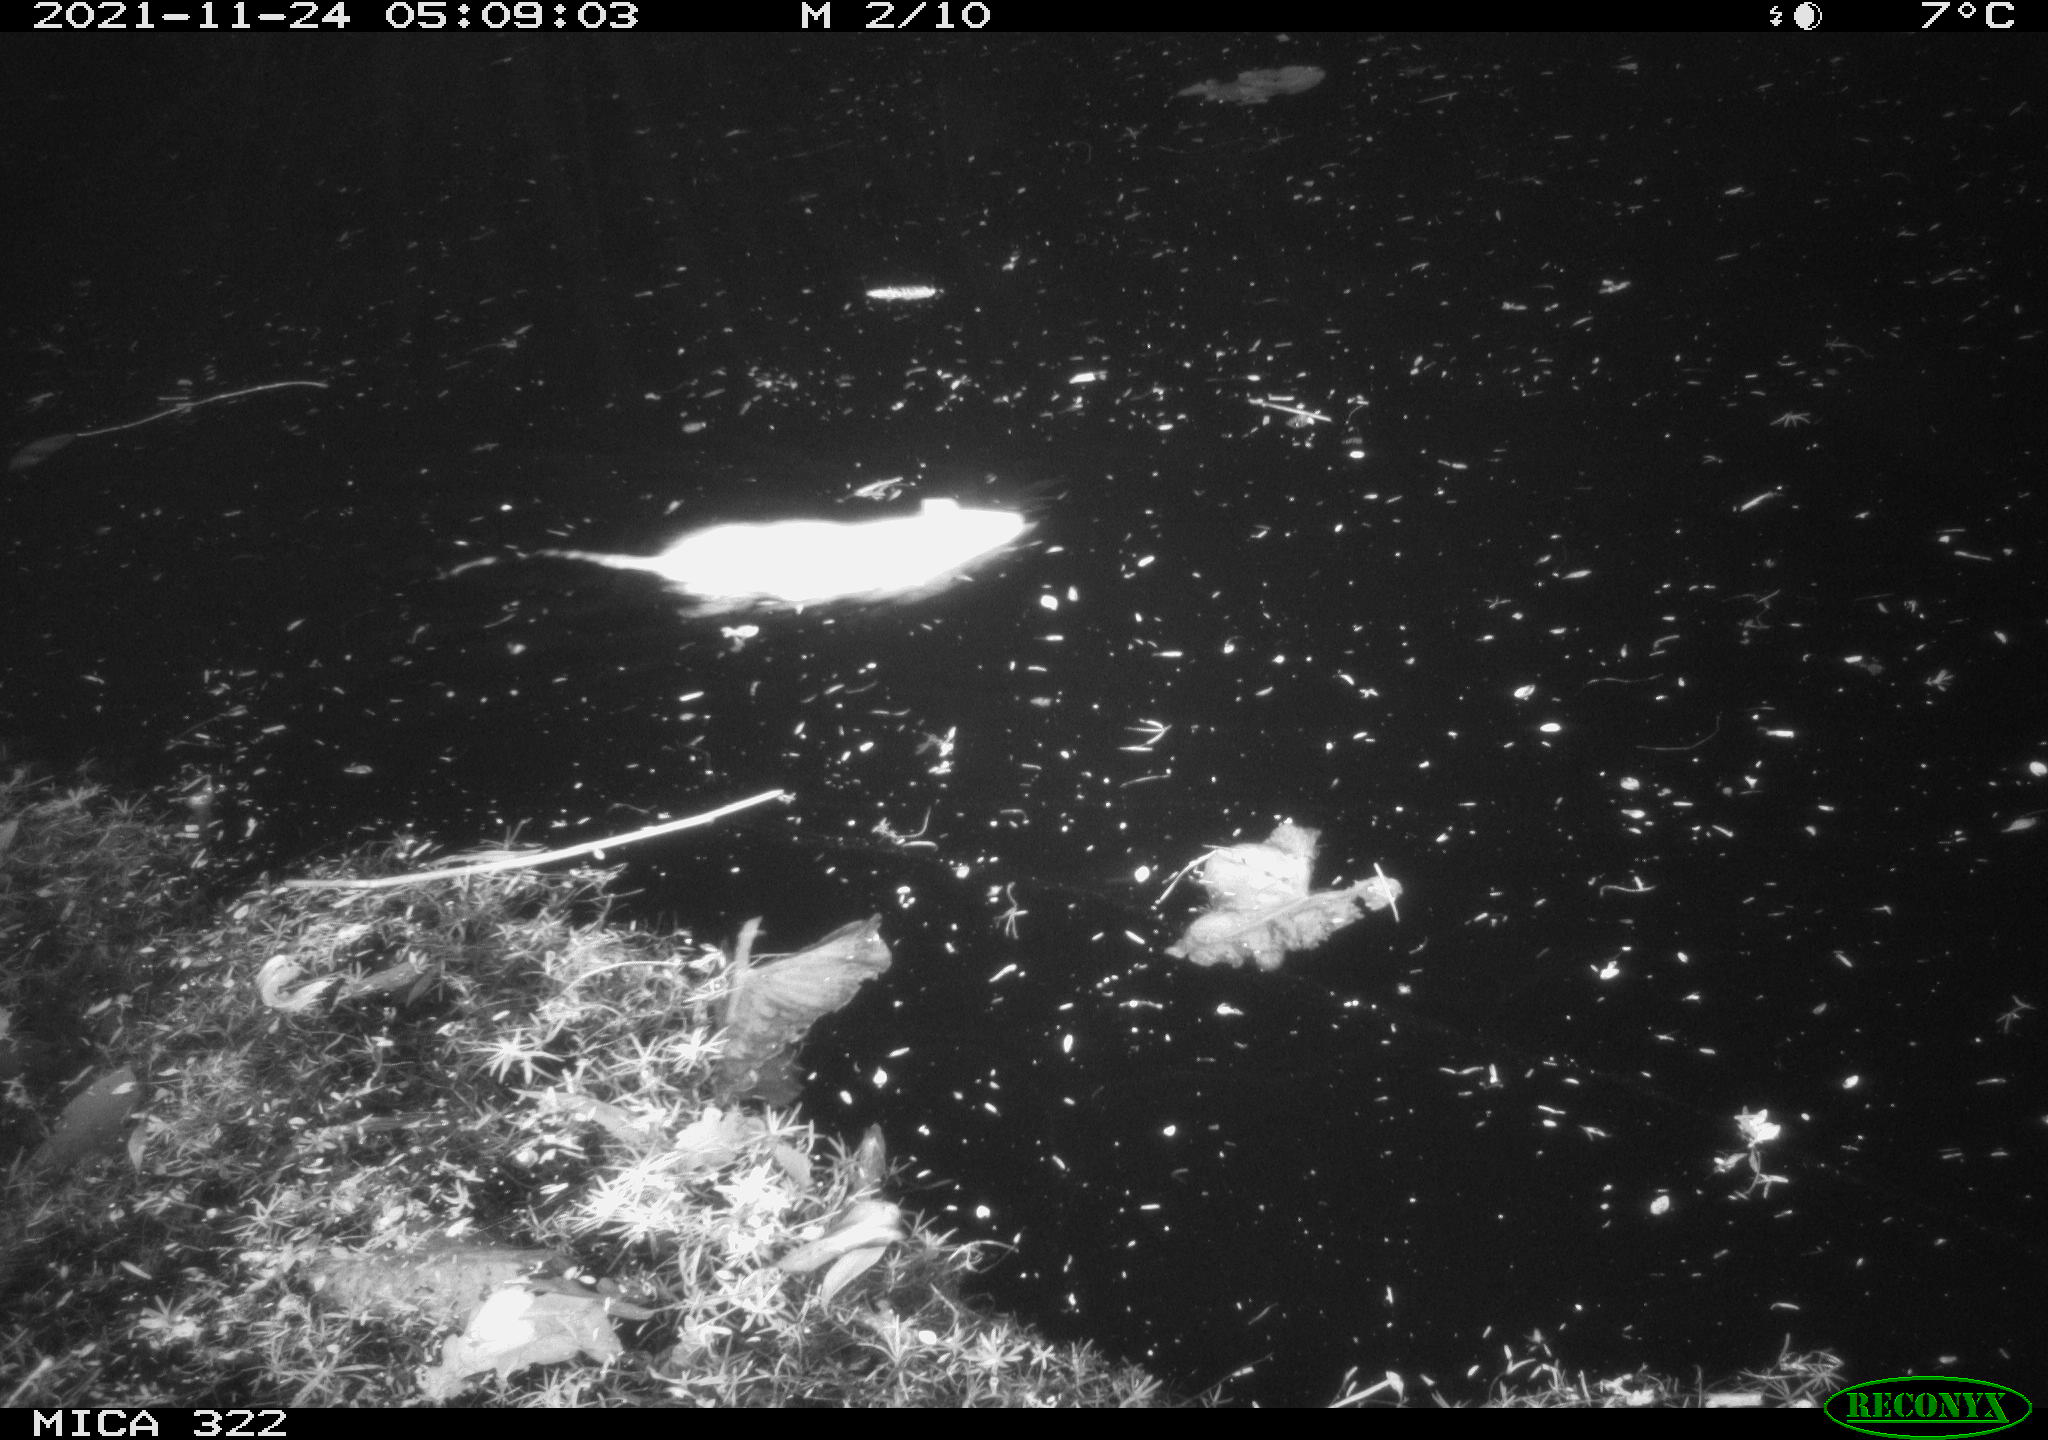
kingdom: Animalia
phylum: Chordata
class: Mammalia
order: Rodentia
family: Muridae
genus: Rattus
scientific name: Rattus norvegicus
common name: Brown rat
